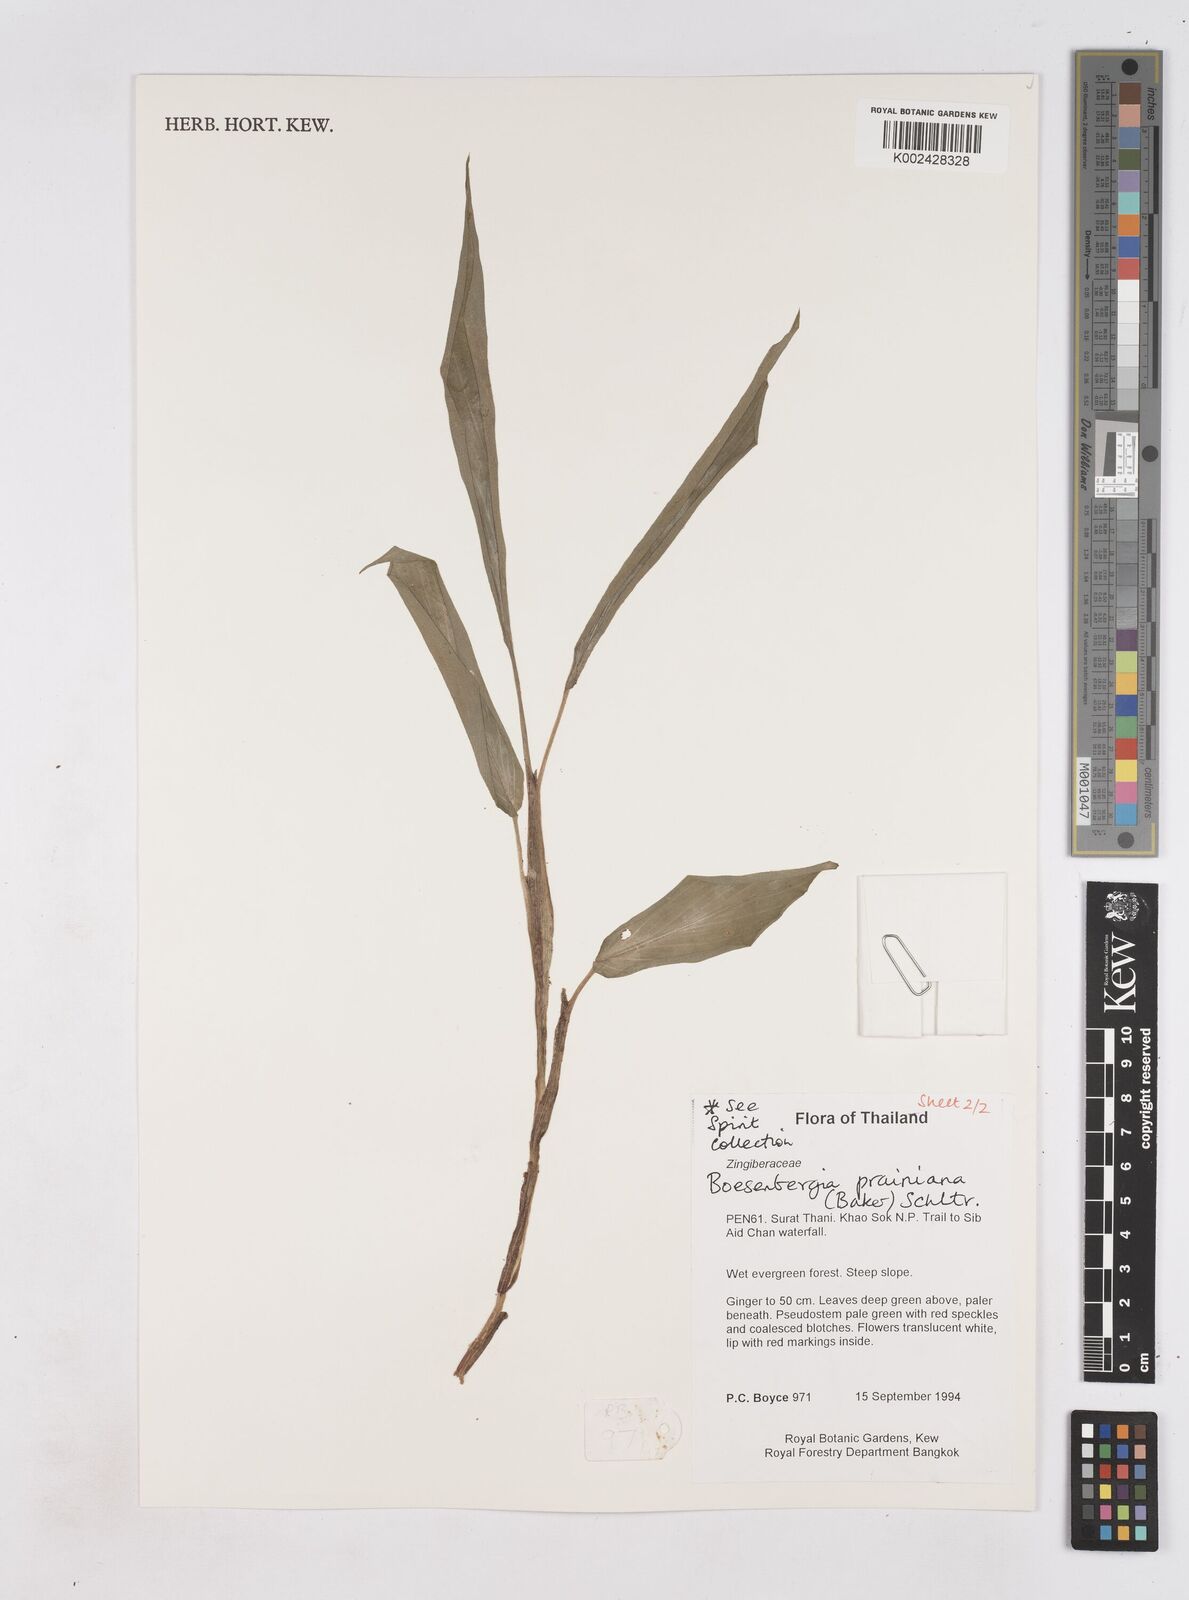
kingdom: Plantae
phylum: Tracheophyta
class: Liliopsida
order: Zingiberales
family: Zingiberaceae
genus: Boesenbergia
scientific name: Boesenbergia prainiana
